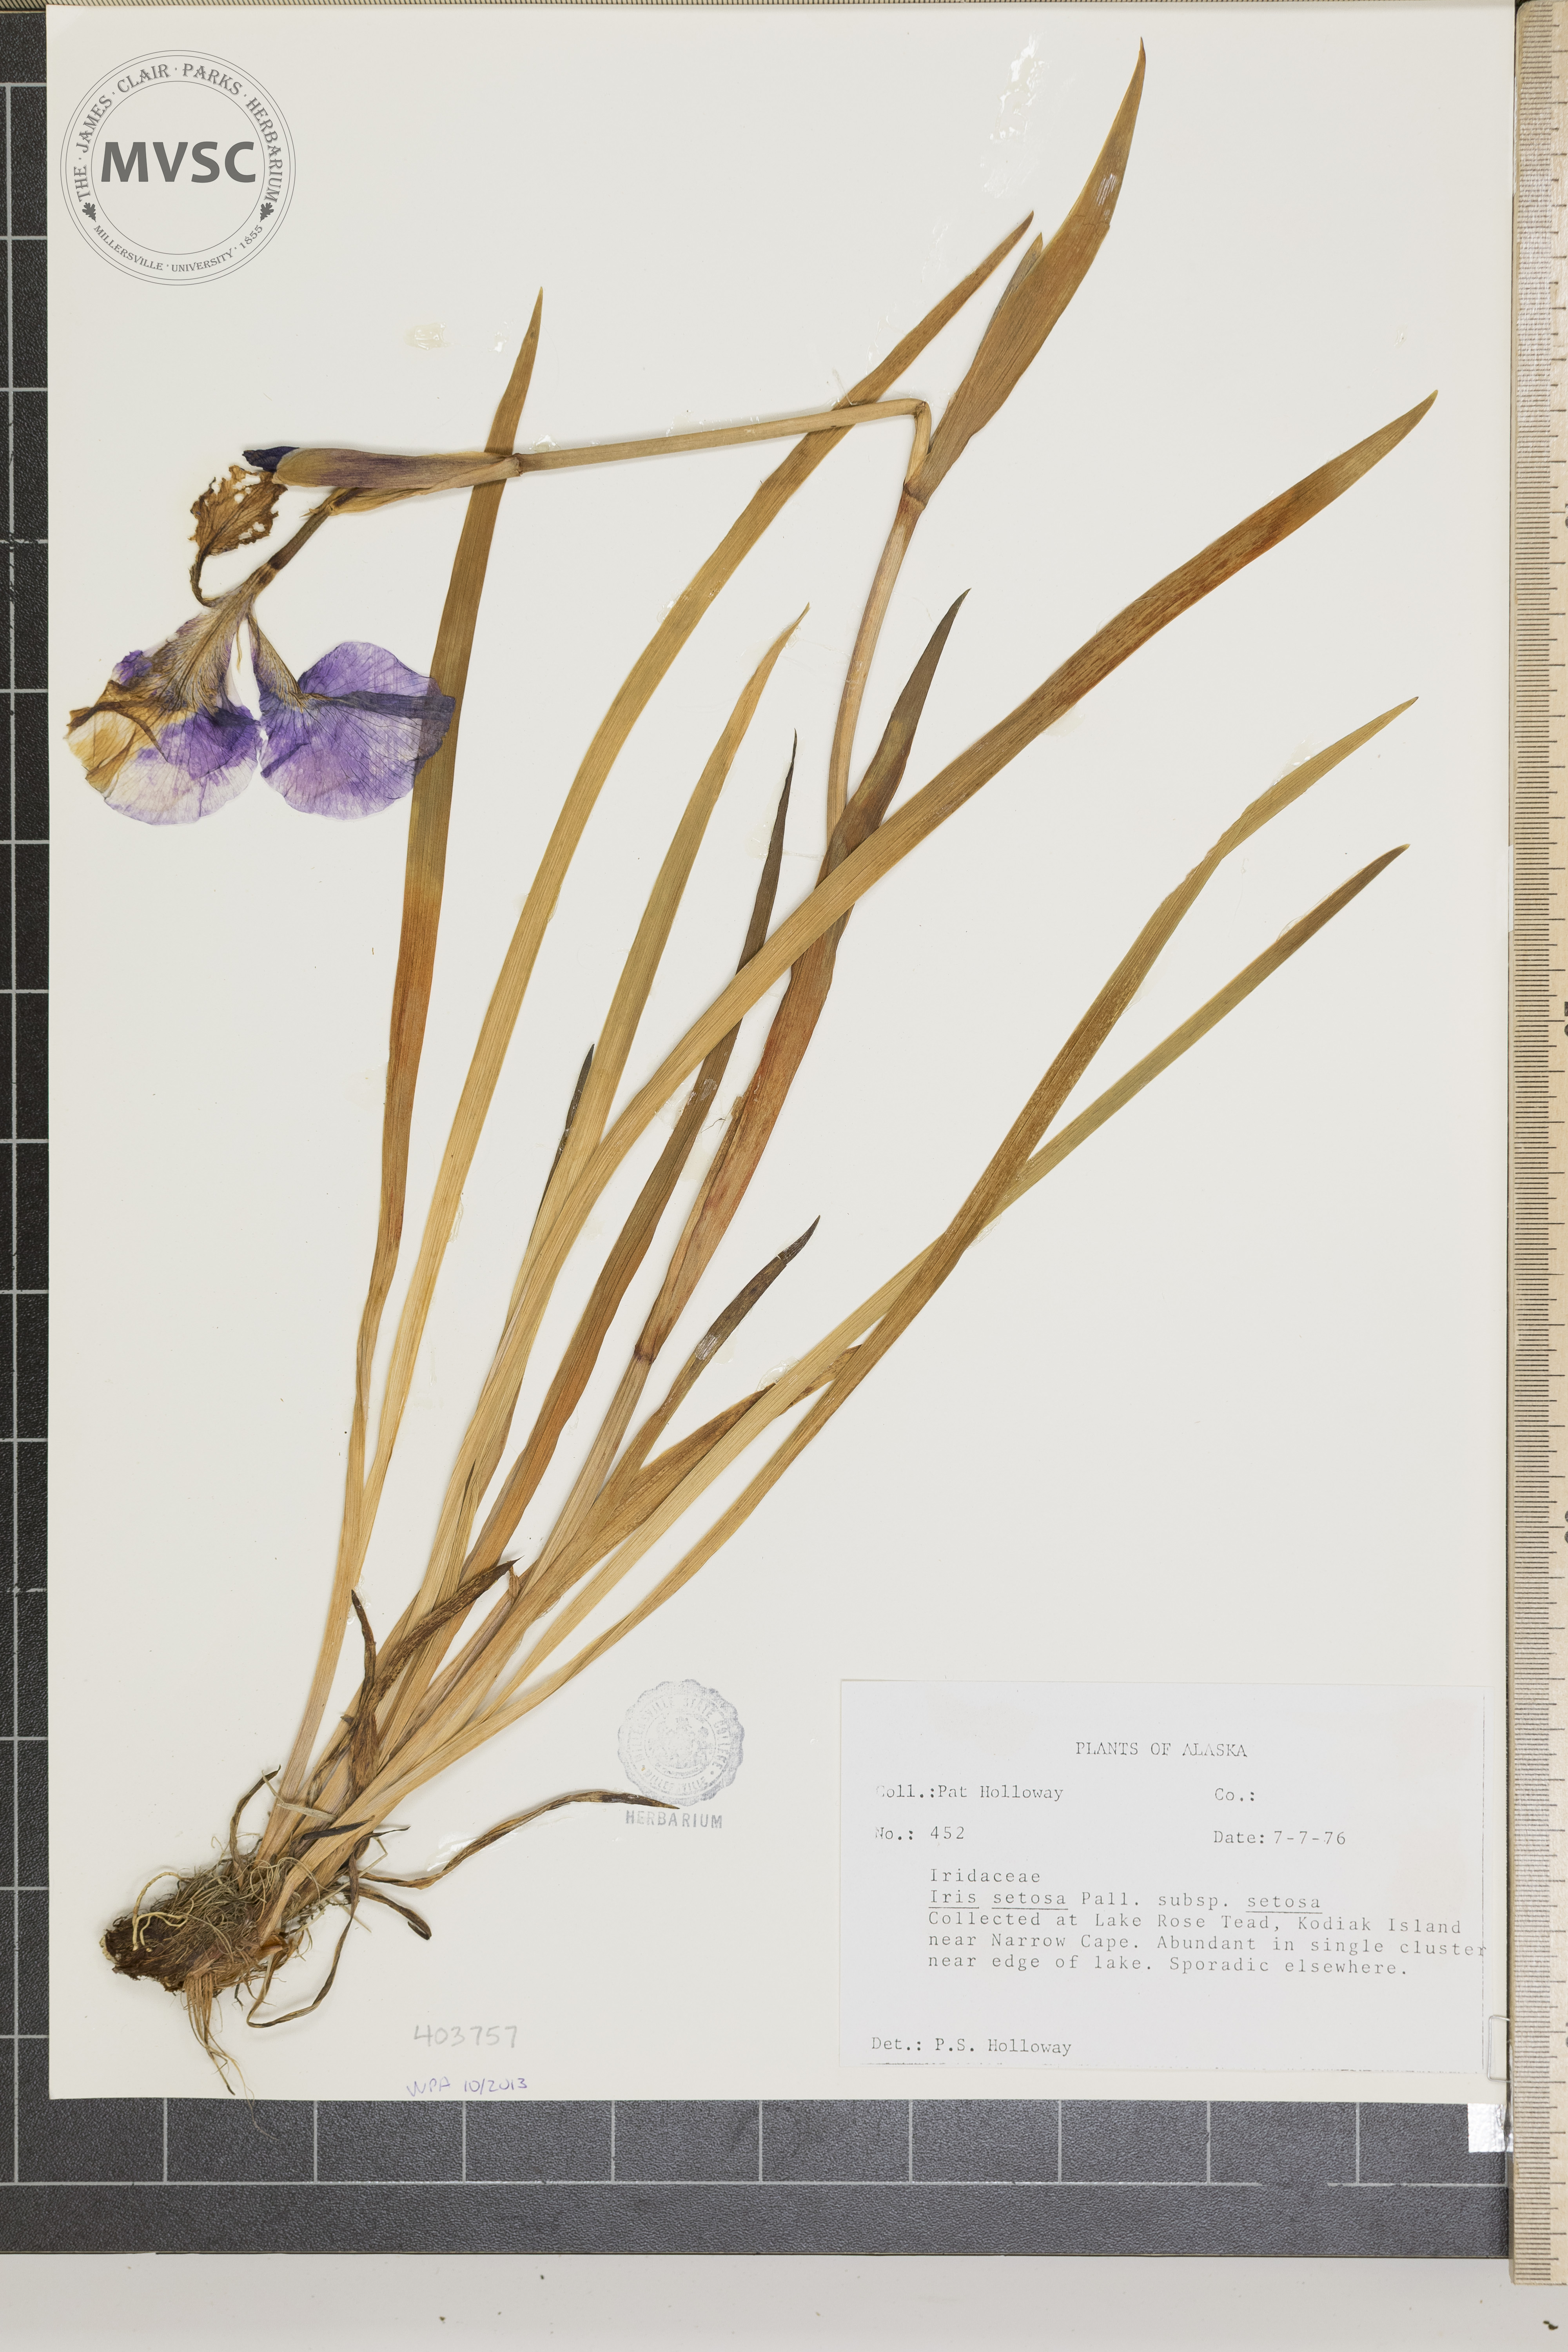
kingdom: Plantae
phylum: Tracheophyta
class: Liliopsida
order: Asparagales
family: Iridaceae
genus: Iris
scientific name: Iris setosa
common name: Arctic blue flag
